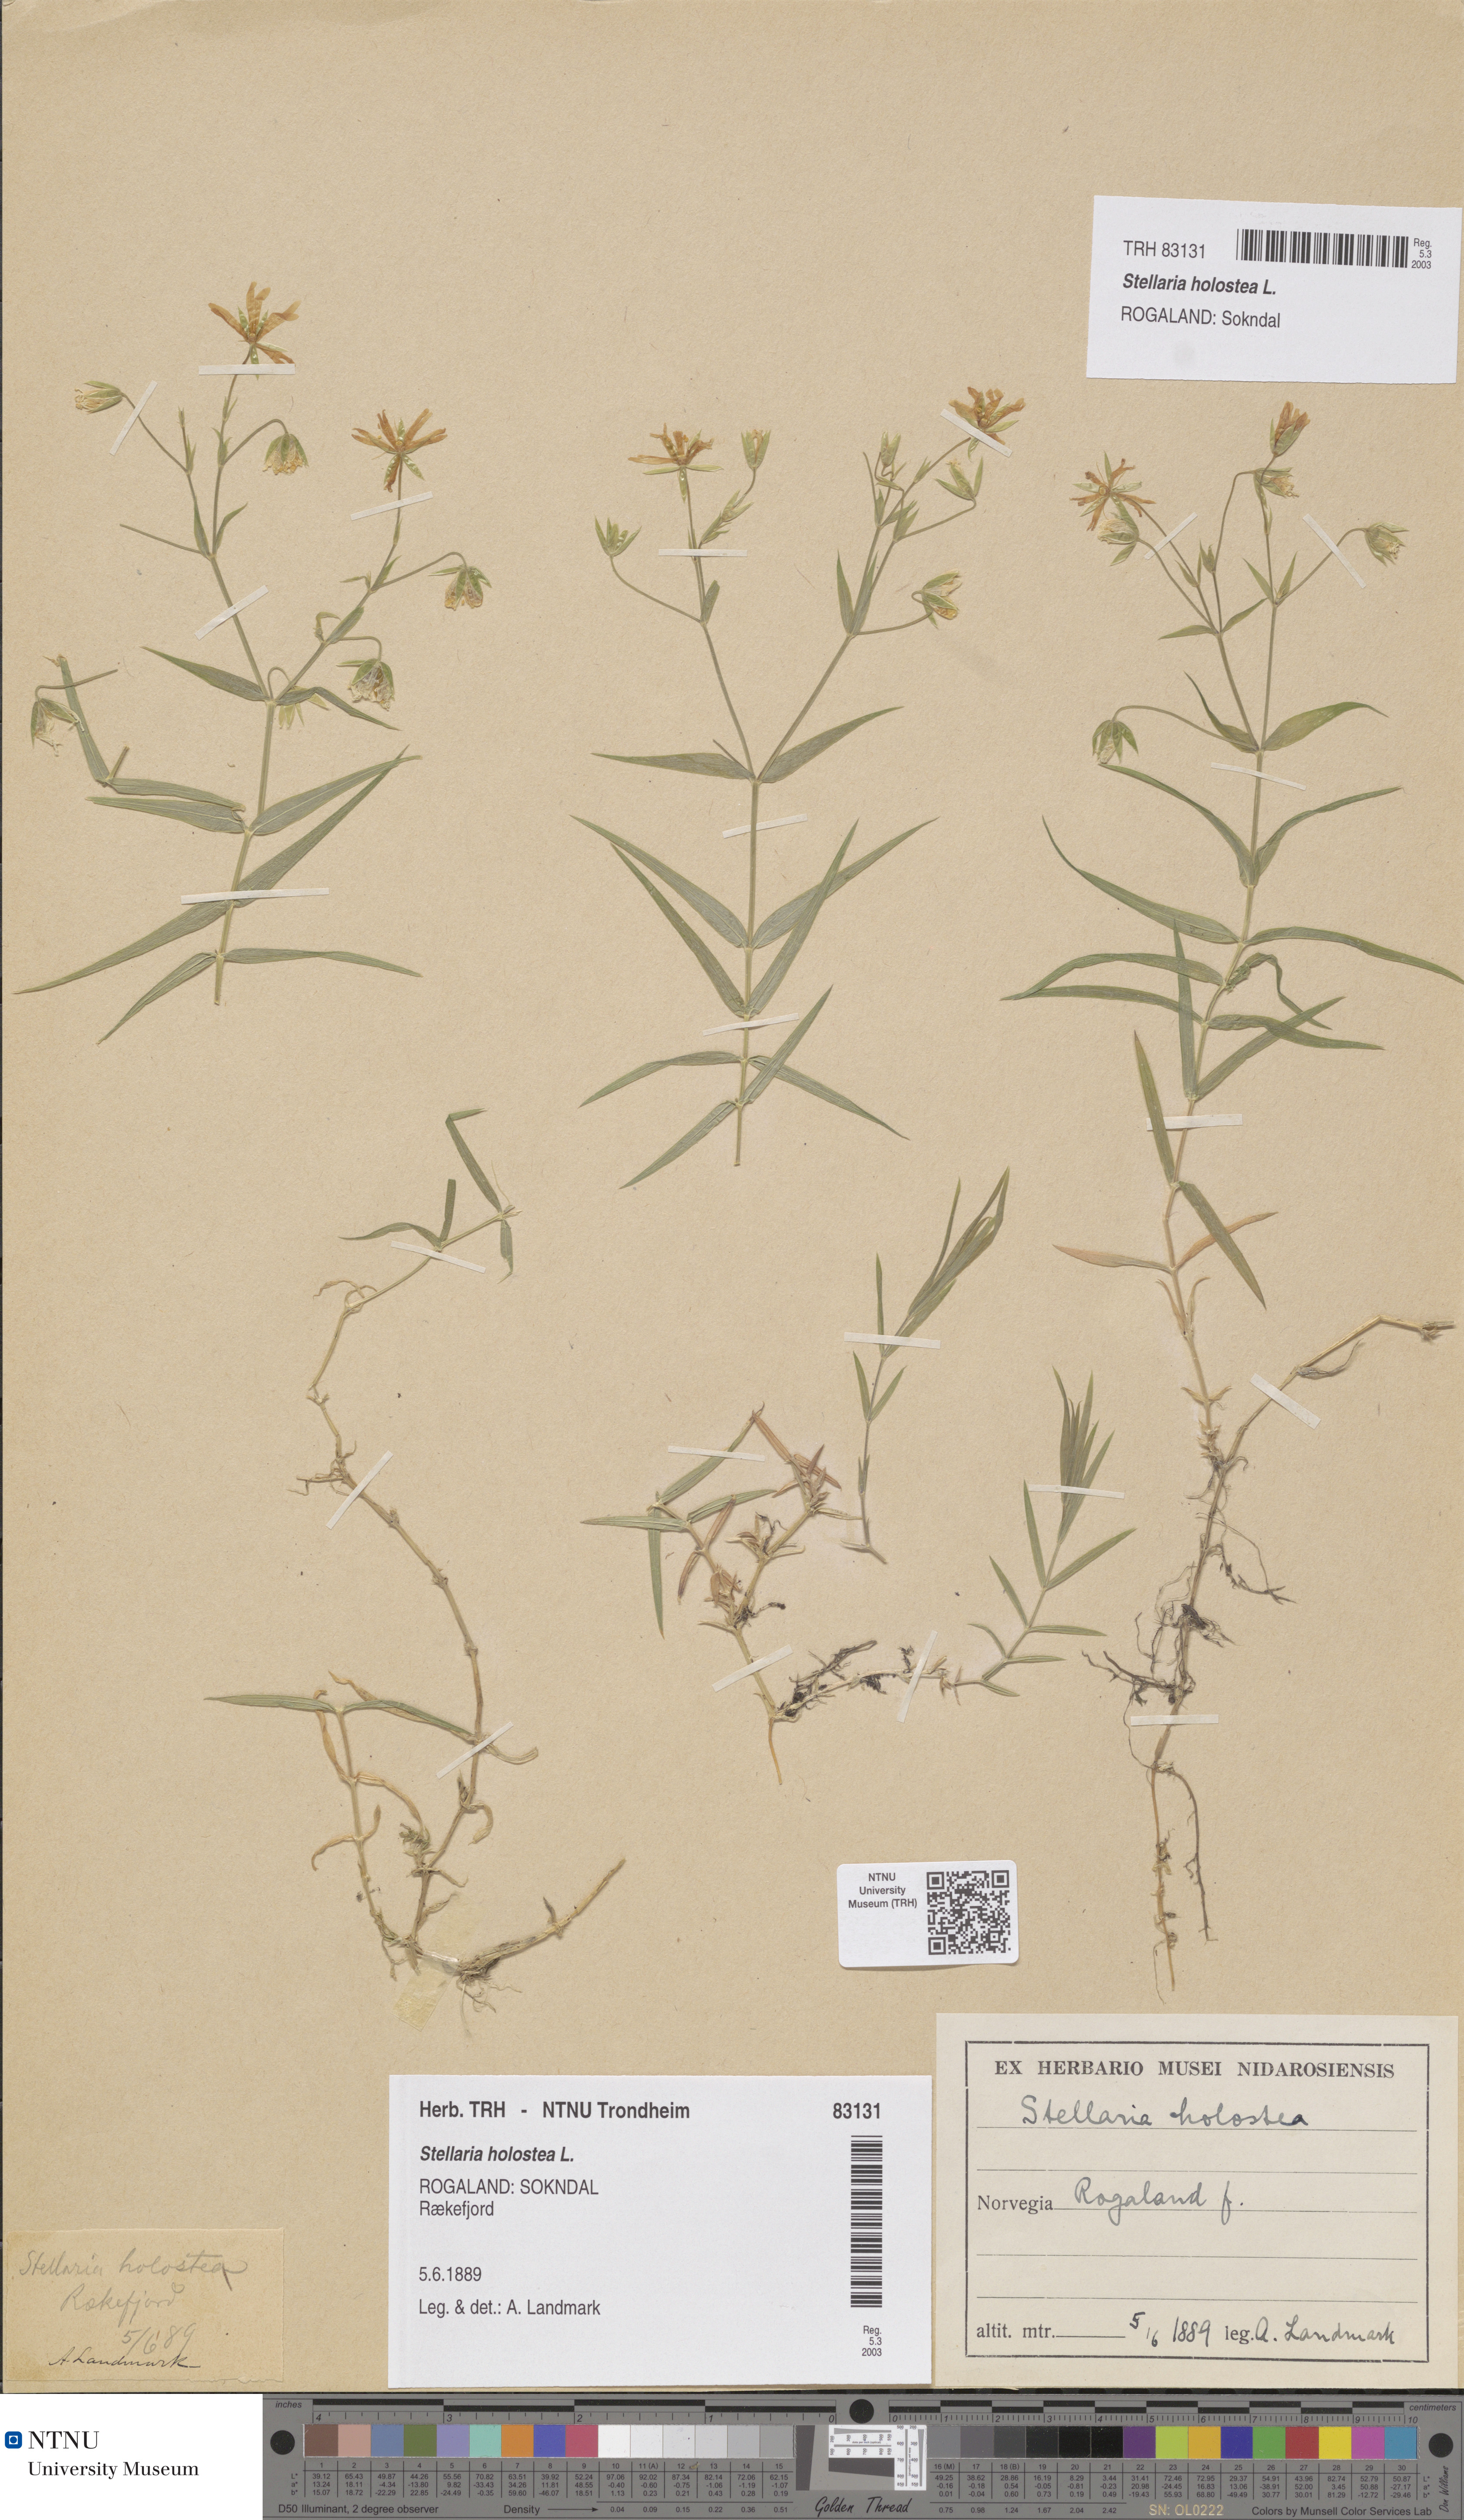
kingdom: Plantae
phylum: Tracheophyta
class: Magnoliopsida
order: Caryophyllales
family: Caryophyllaceae
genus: Rabelera
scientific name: Rabelera holostea
